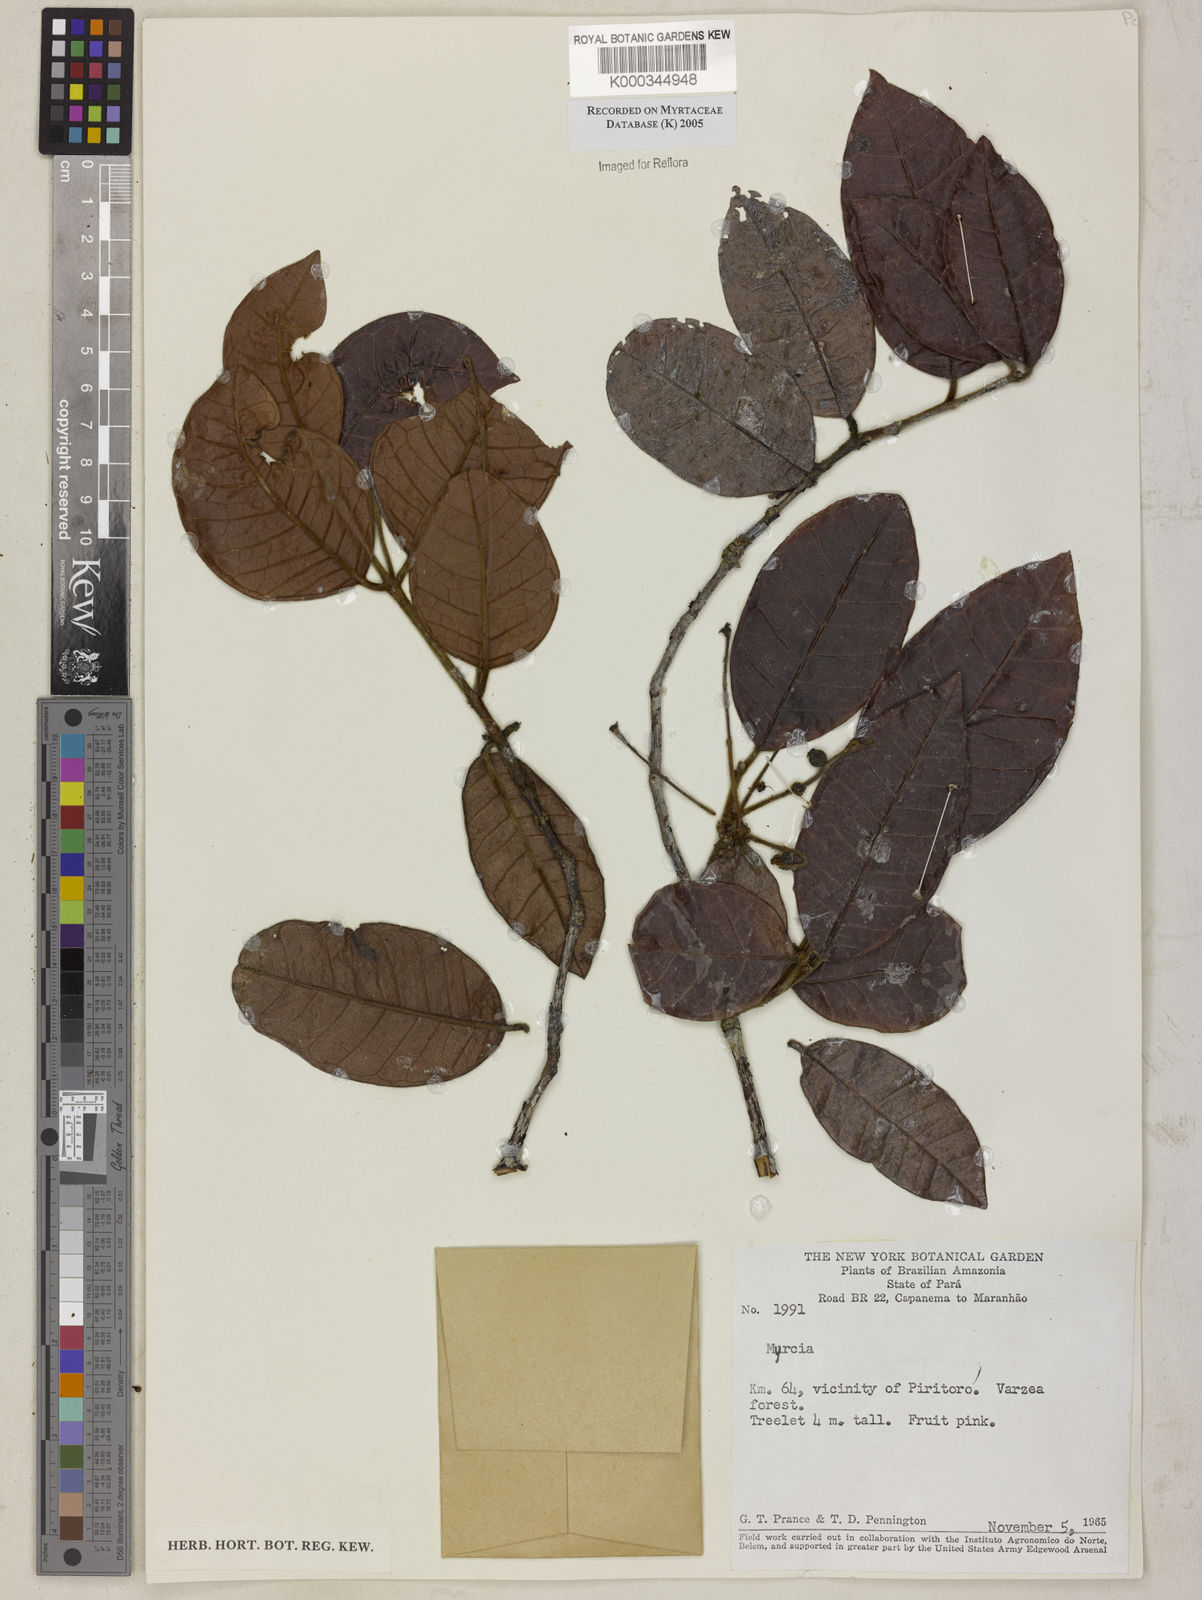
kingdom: Plantae
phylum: Tracheophyta
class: Magnoliopsida
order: Myrtales
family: Myrtaceae
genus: Myrcia
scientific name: Myrcia
